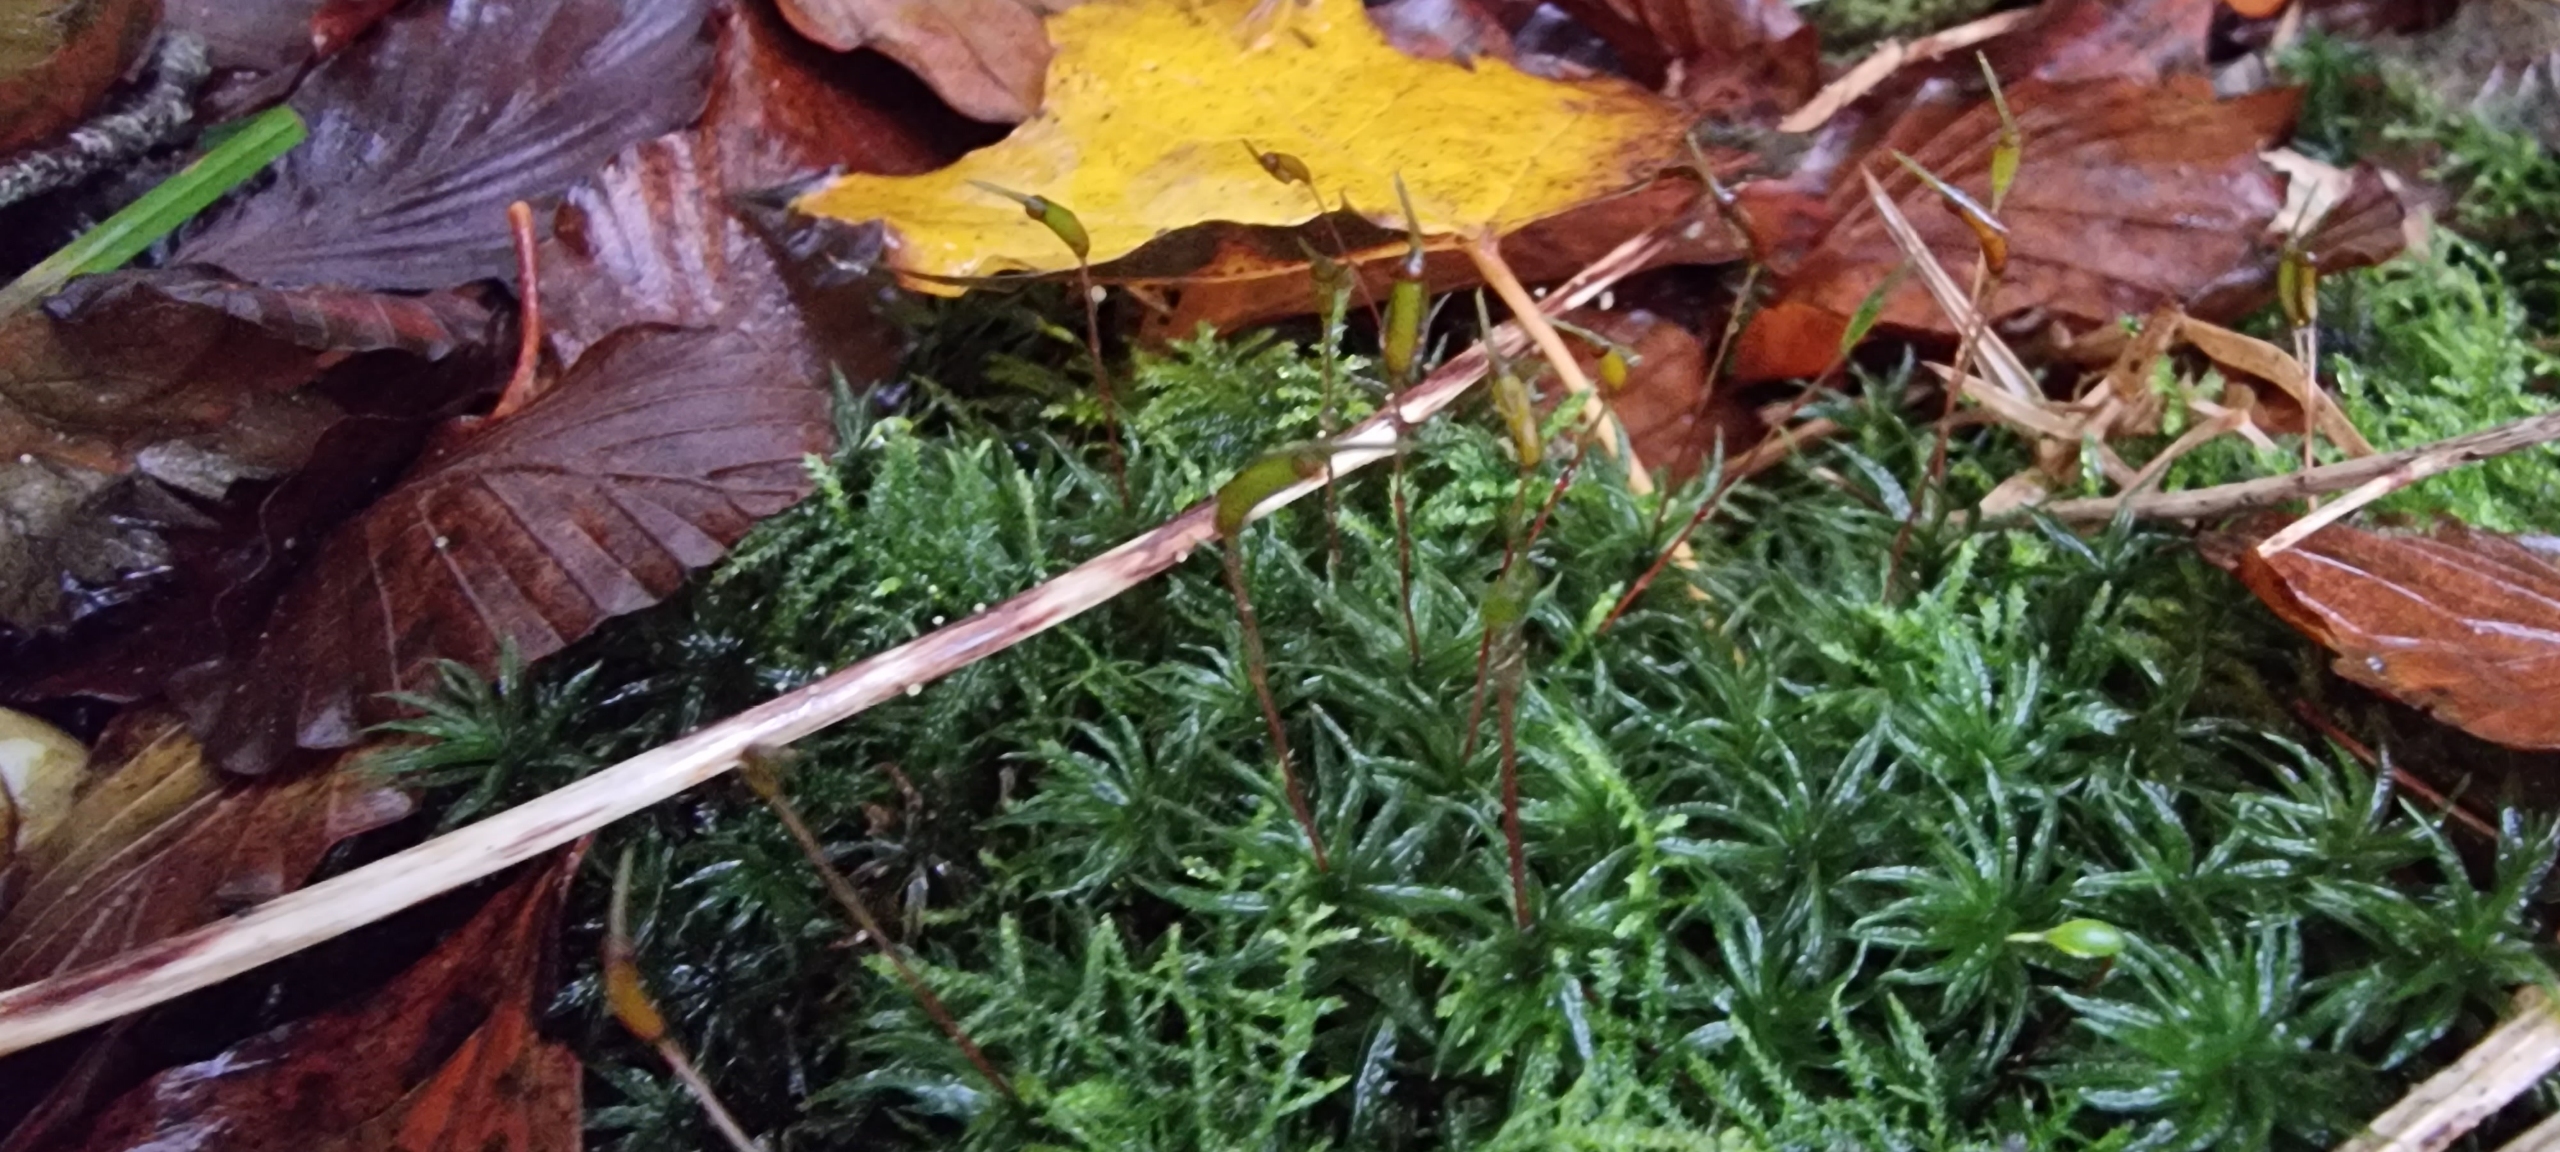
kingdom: Plantae
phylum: Bryophyta
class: Polytrichopsida
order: Polytrichales
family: Polytrichaceae
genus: Atrichum
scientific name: Atrichum undulatum
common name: Bølget katrinemos
